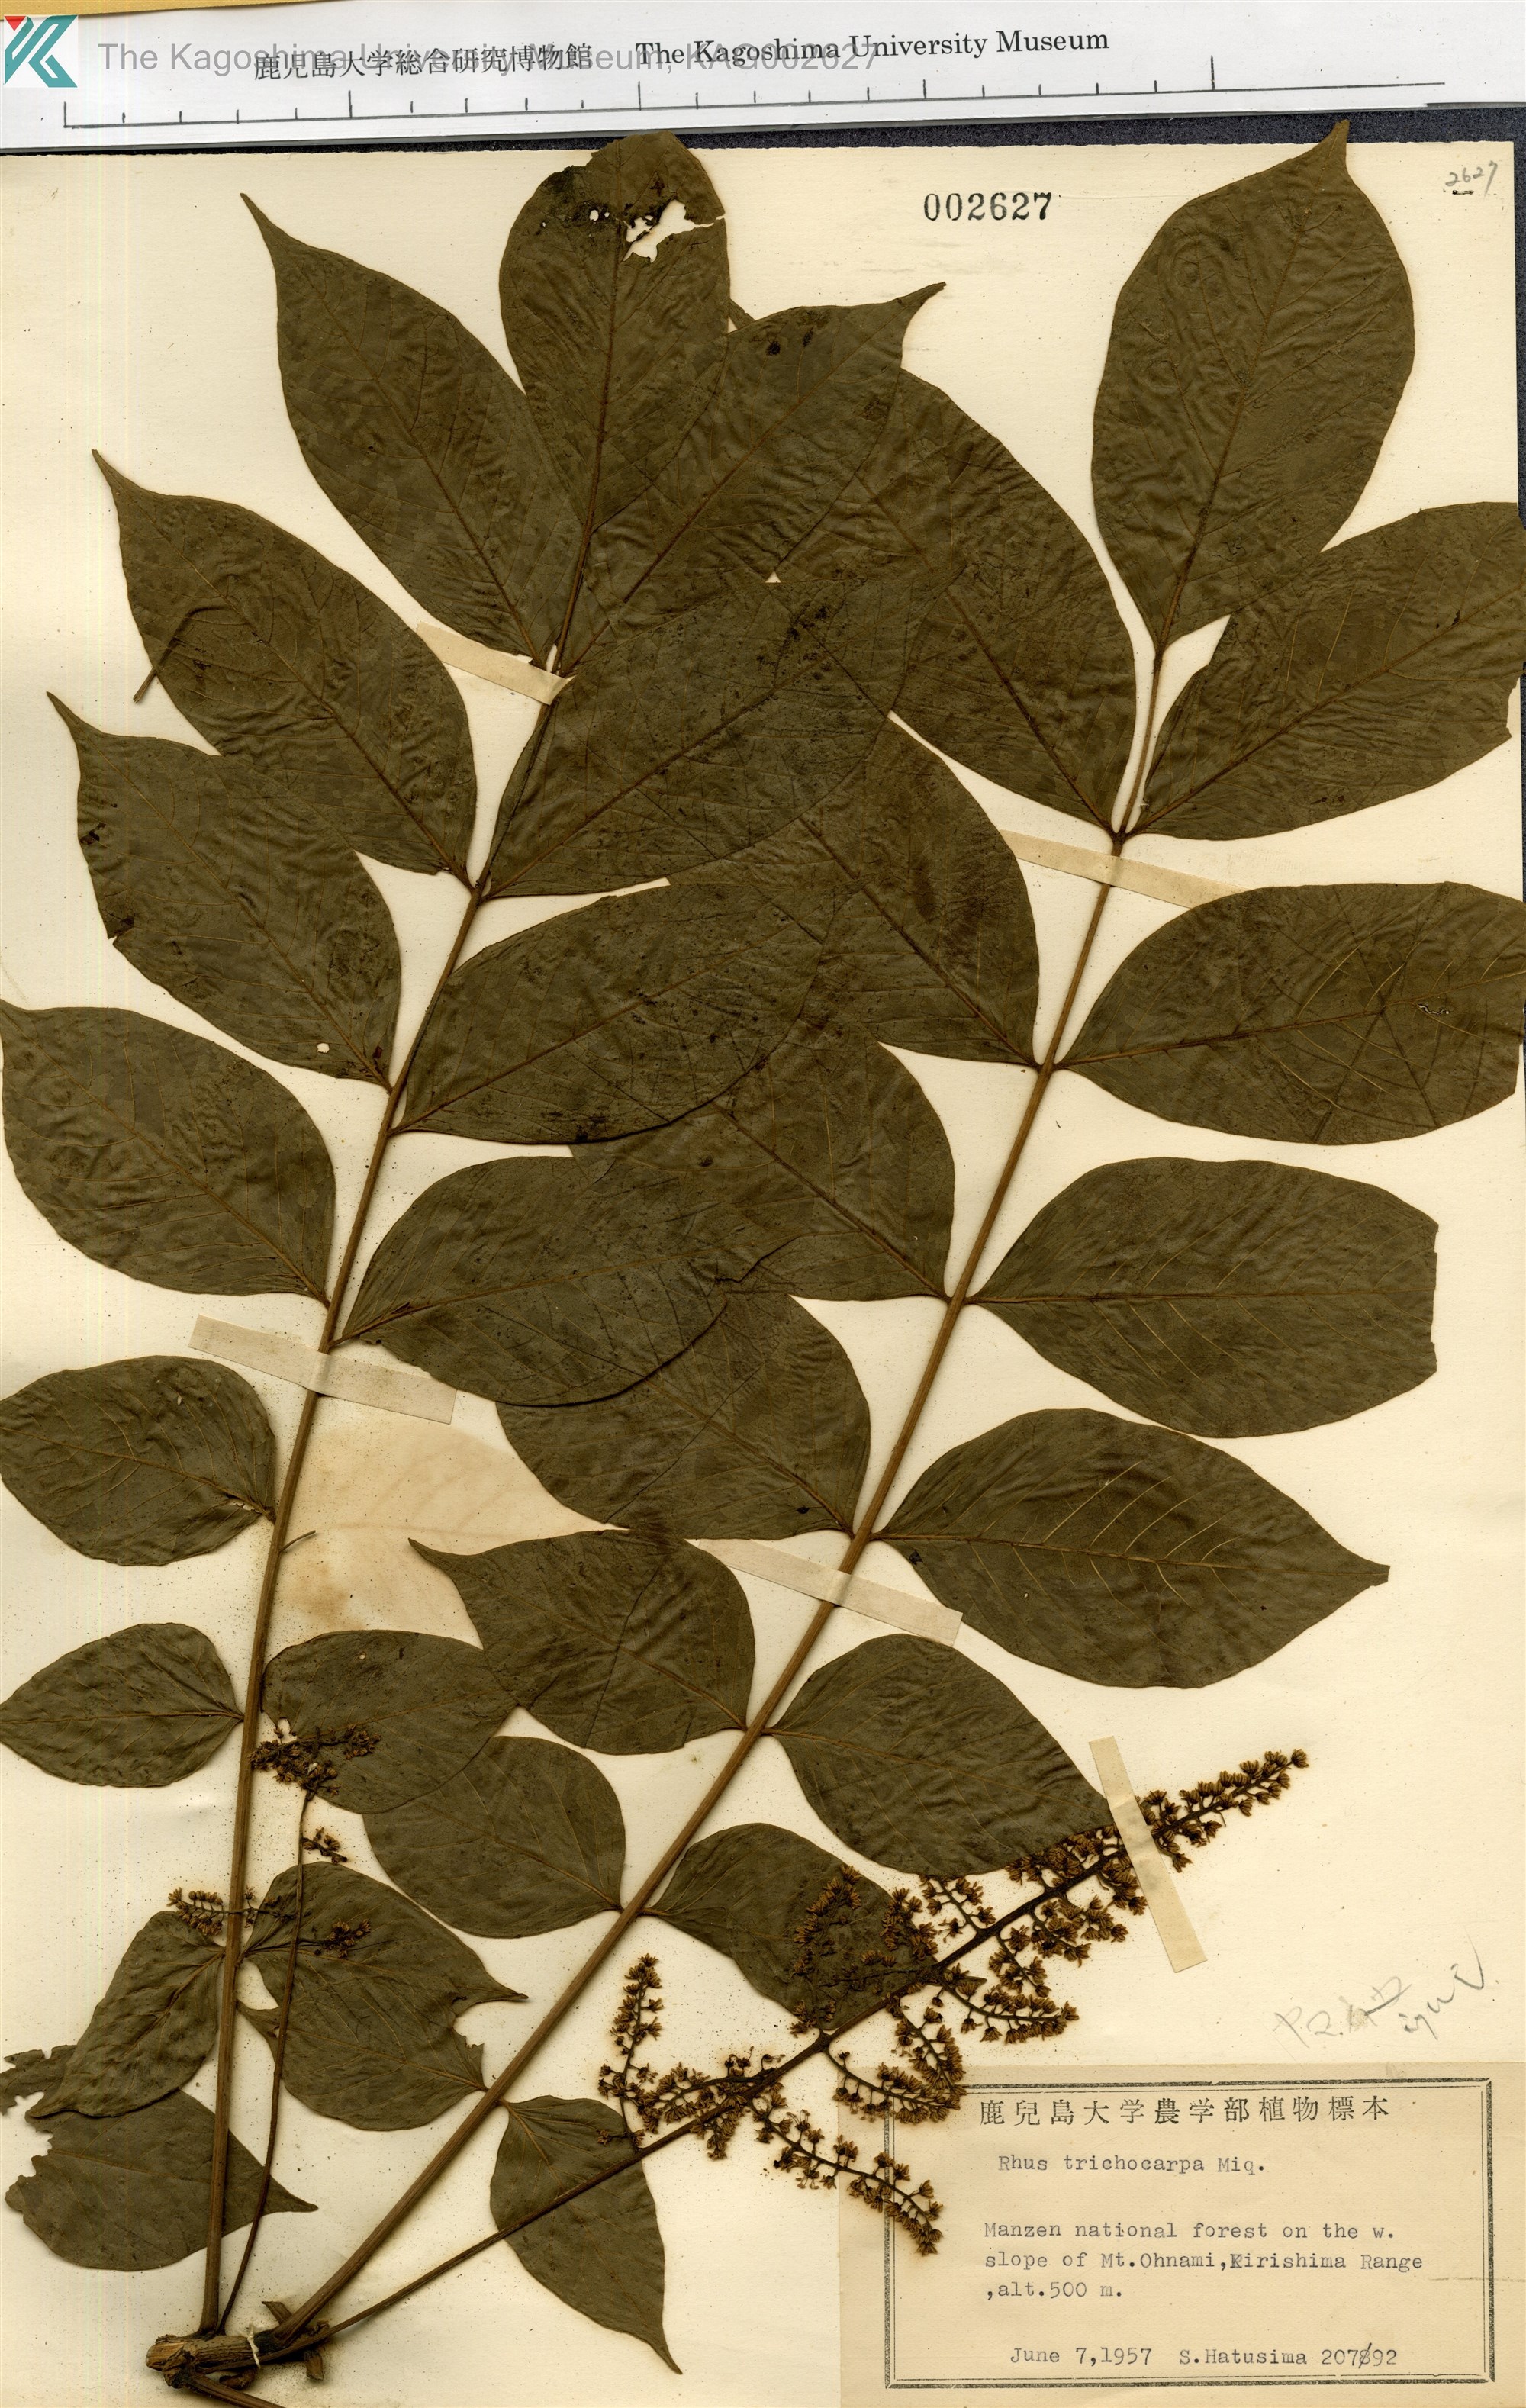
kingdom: Plantae
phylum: Tracheophyta
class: Magnoliopsida
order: Sapindales
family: Anacardiaceae
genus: Toxicodendron
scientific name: Toxicodendron trichocarpum
